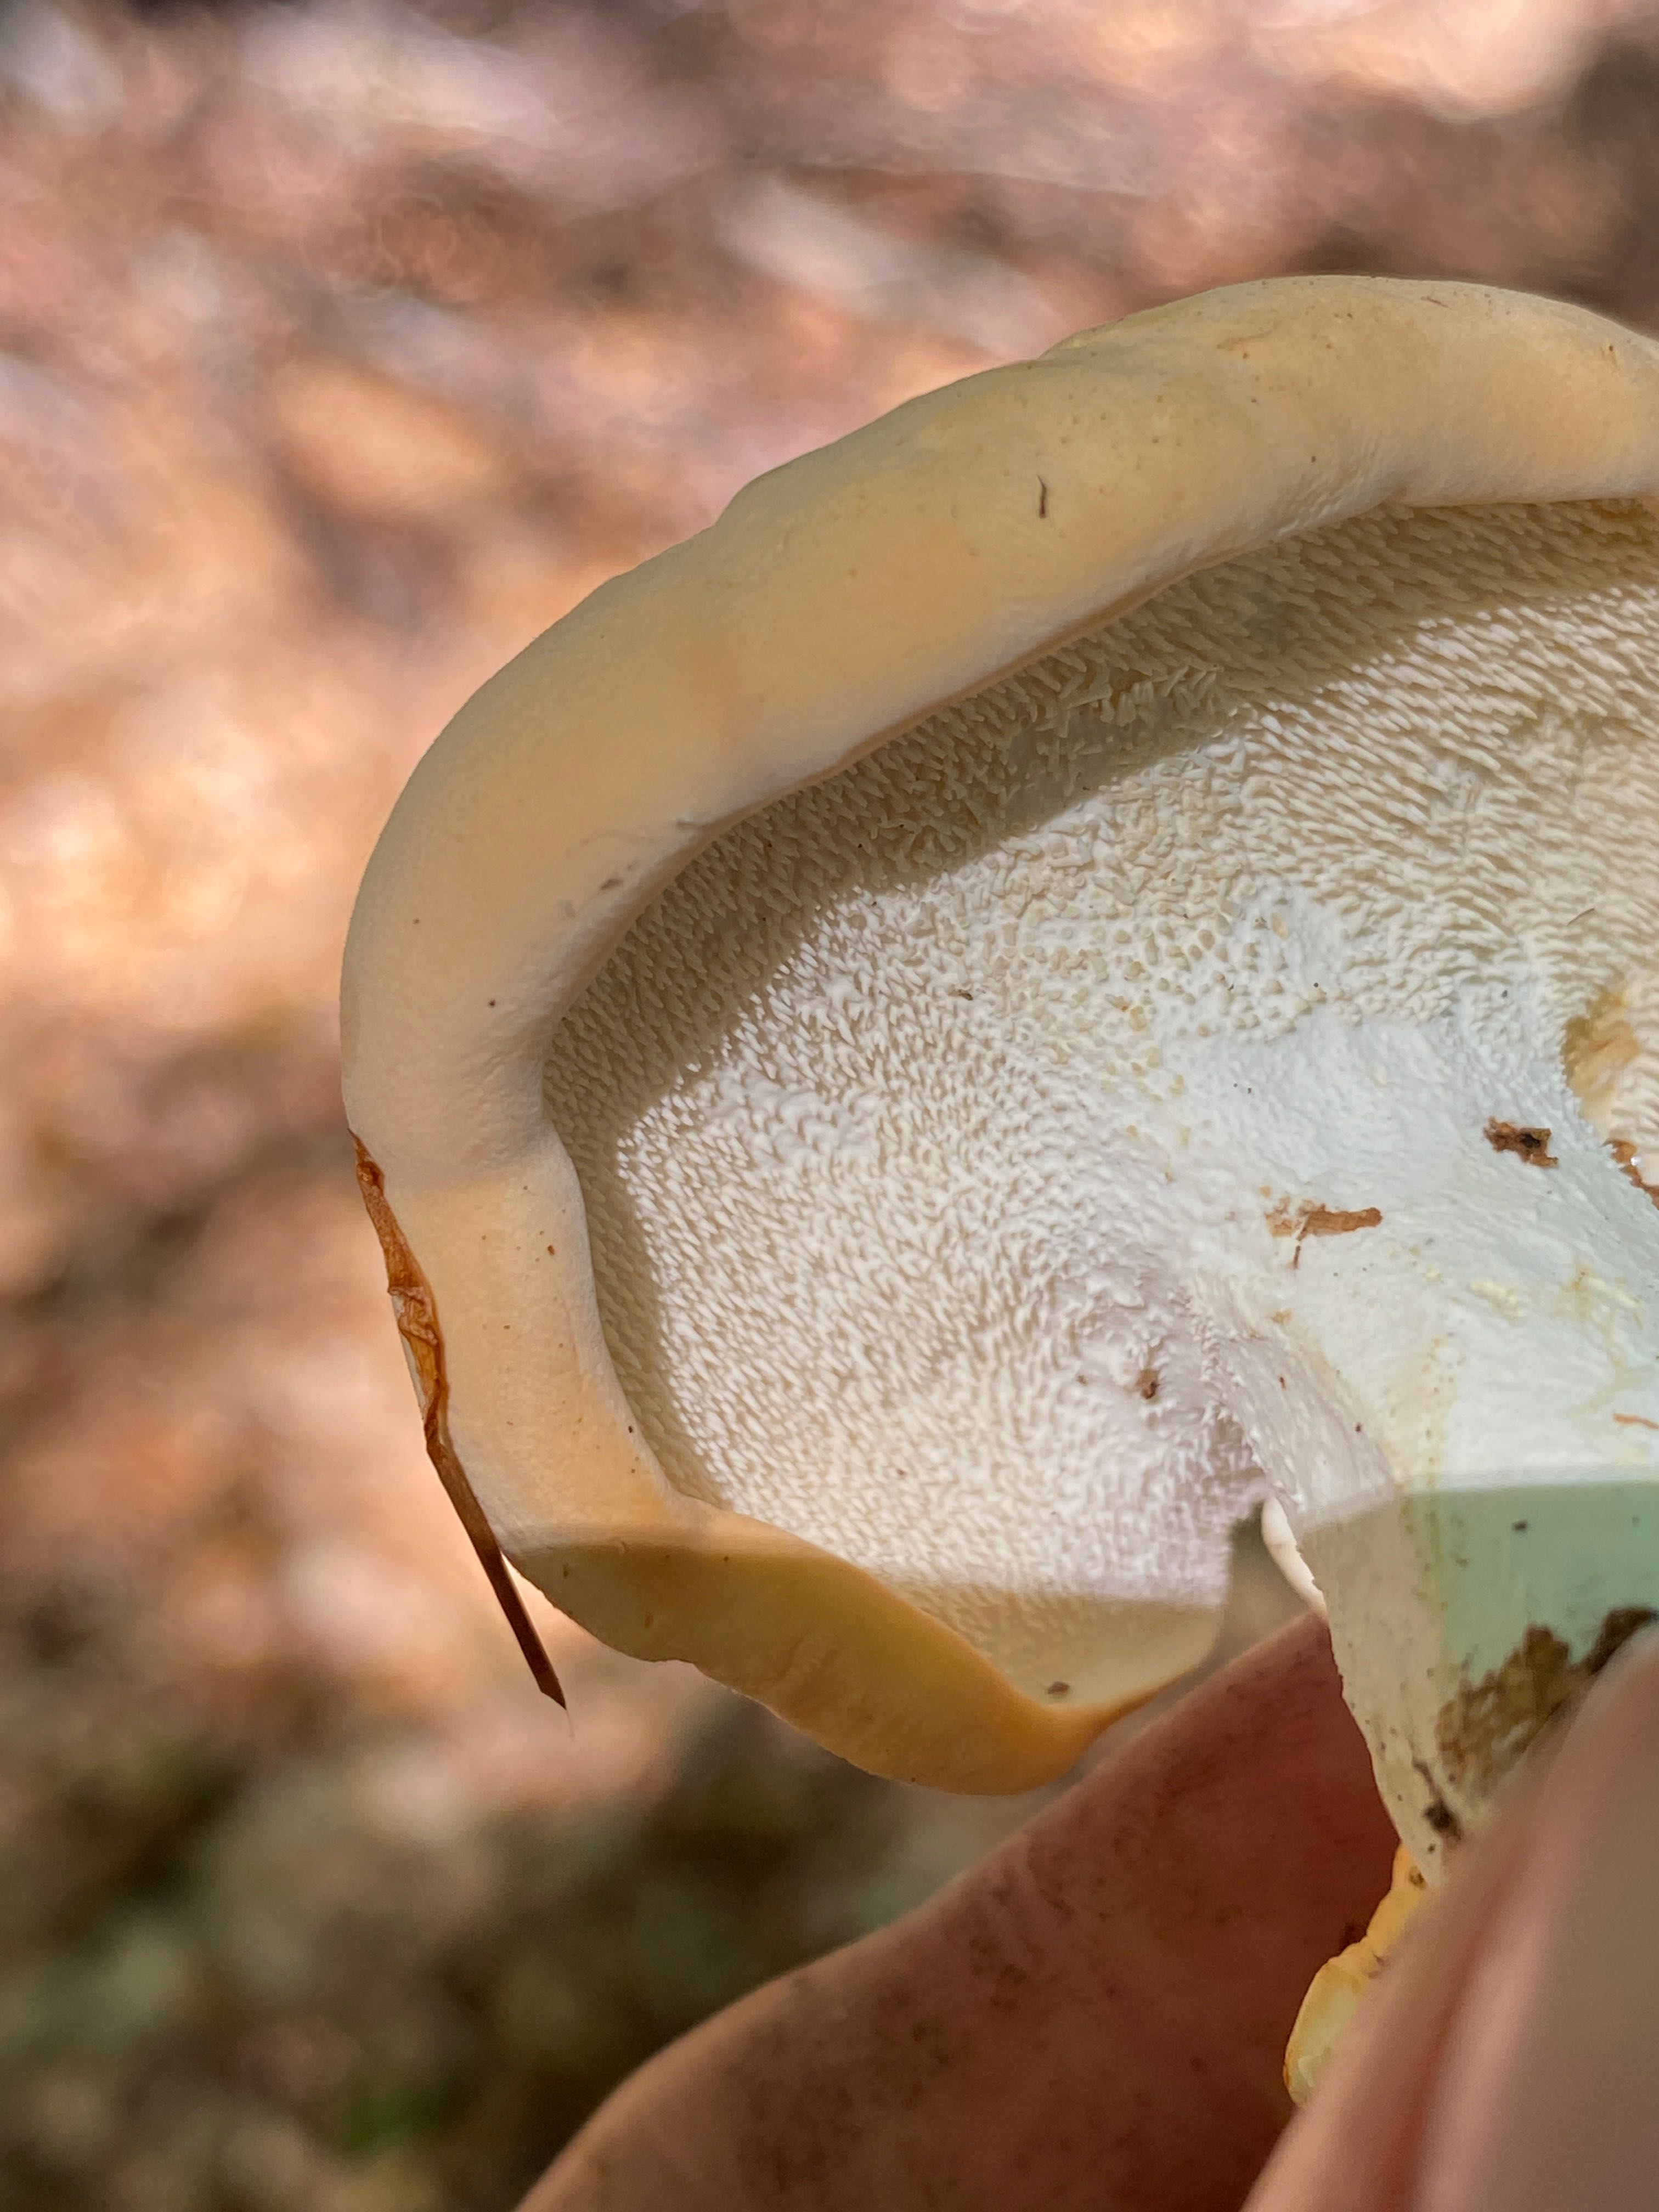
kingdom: Fungi
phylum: Basidiomycota
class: Agaricomycetes
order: Cantharellales
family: Hydnaceae
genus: Hydnum
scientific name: Hydnum
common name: pigsvamp
